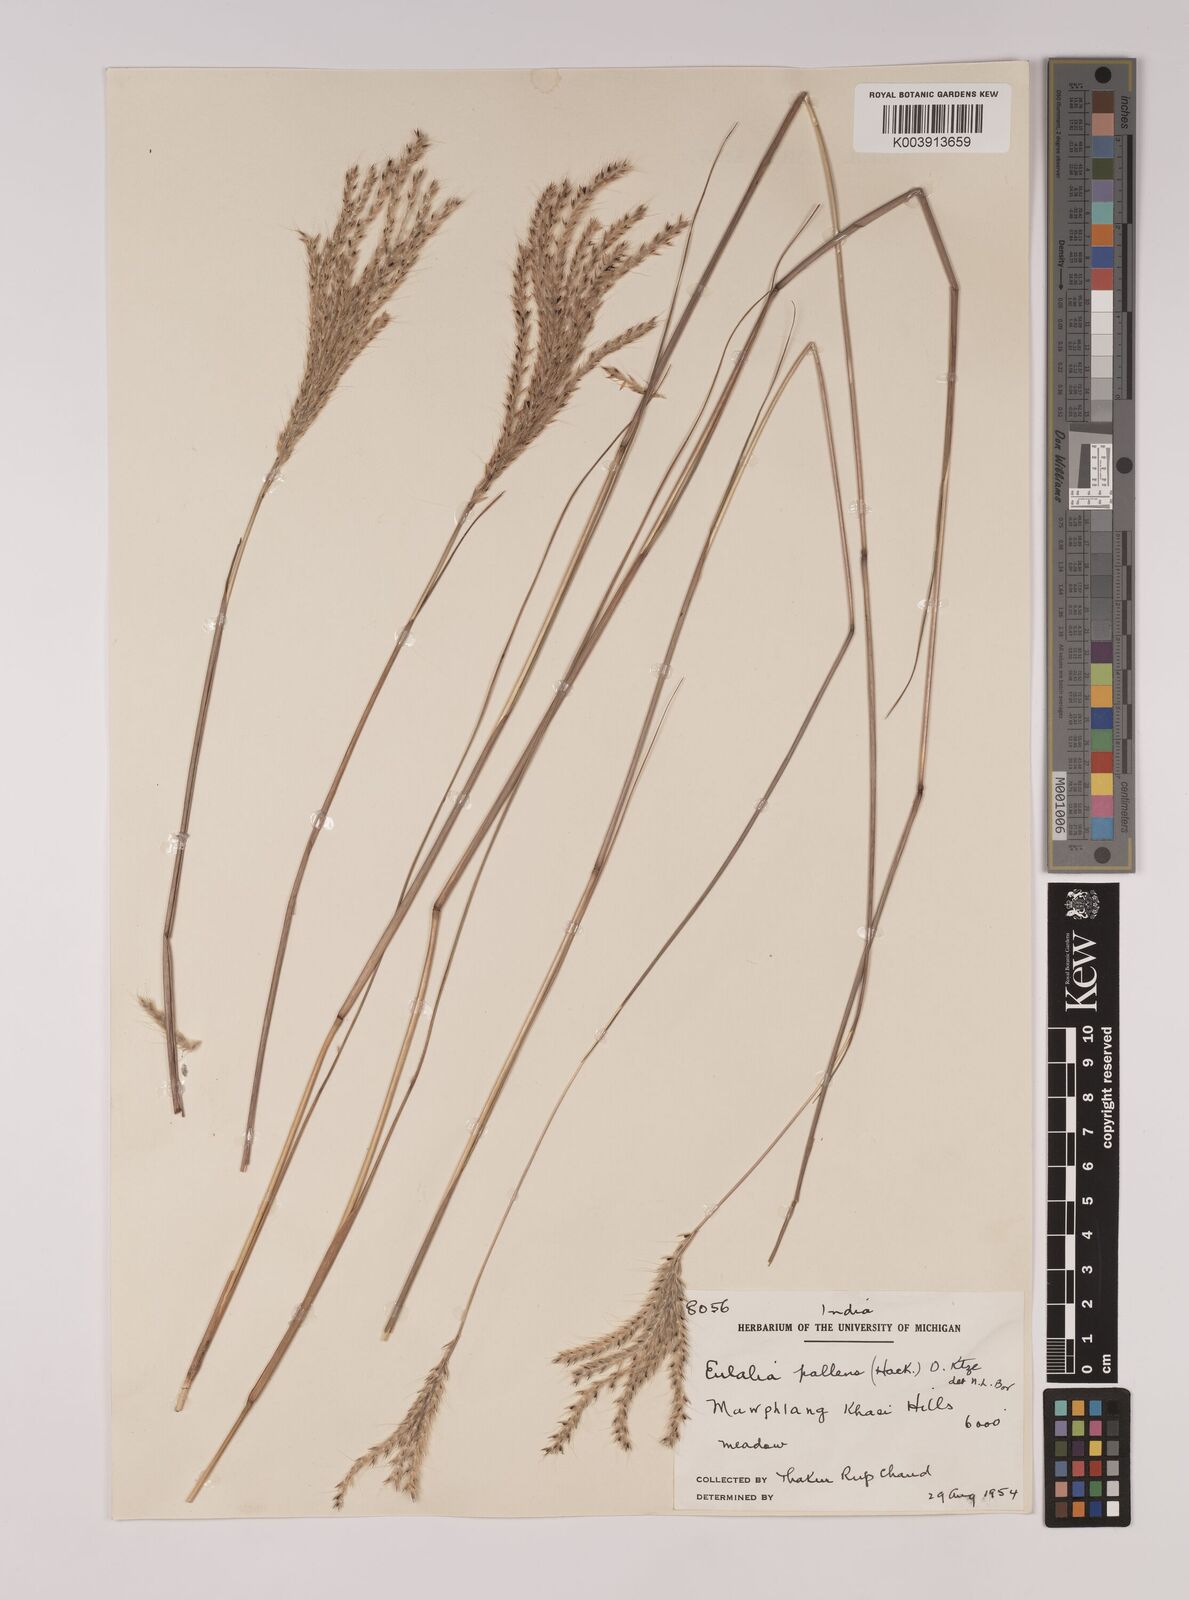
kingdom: Plantae
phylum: Tracheophyta
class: Liliopsida
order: Poales
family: Poaceae
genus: Eulalia
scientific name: Eulalia pallens
